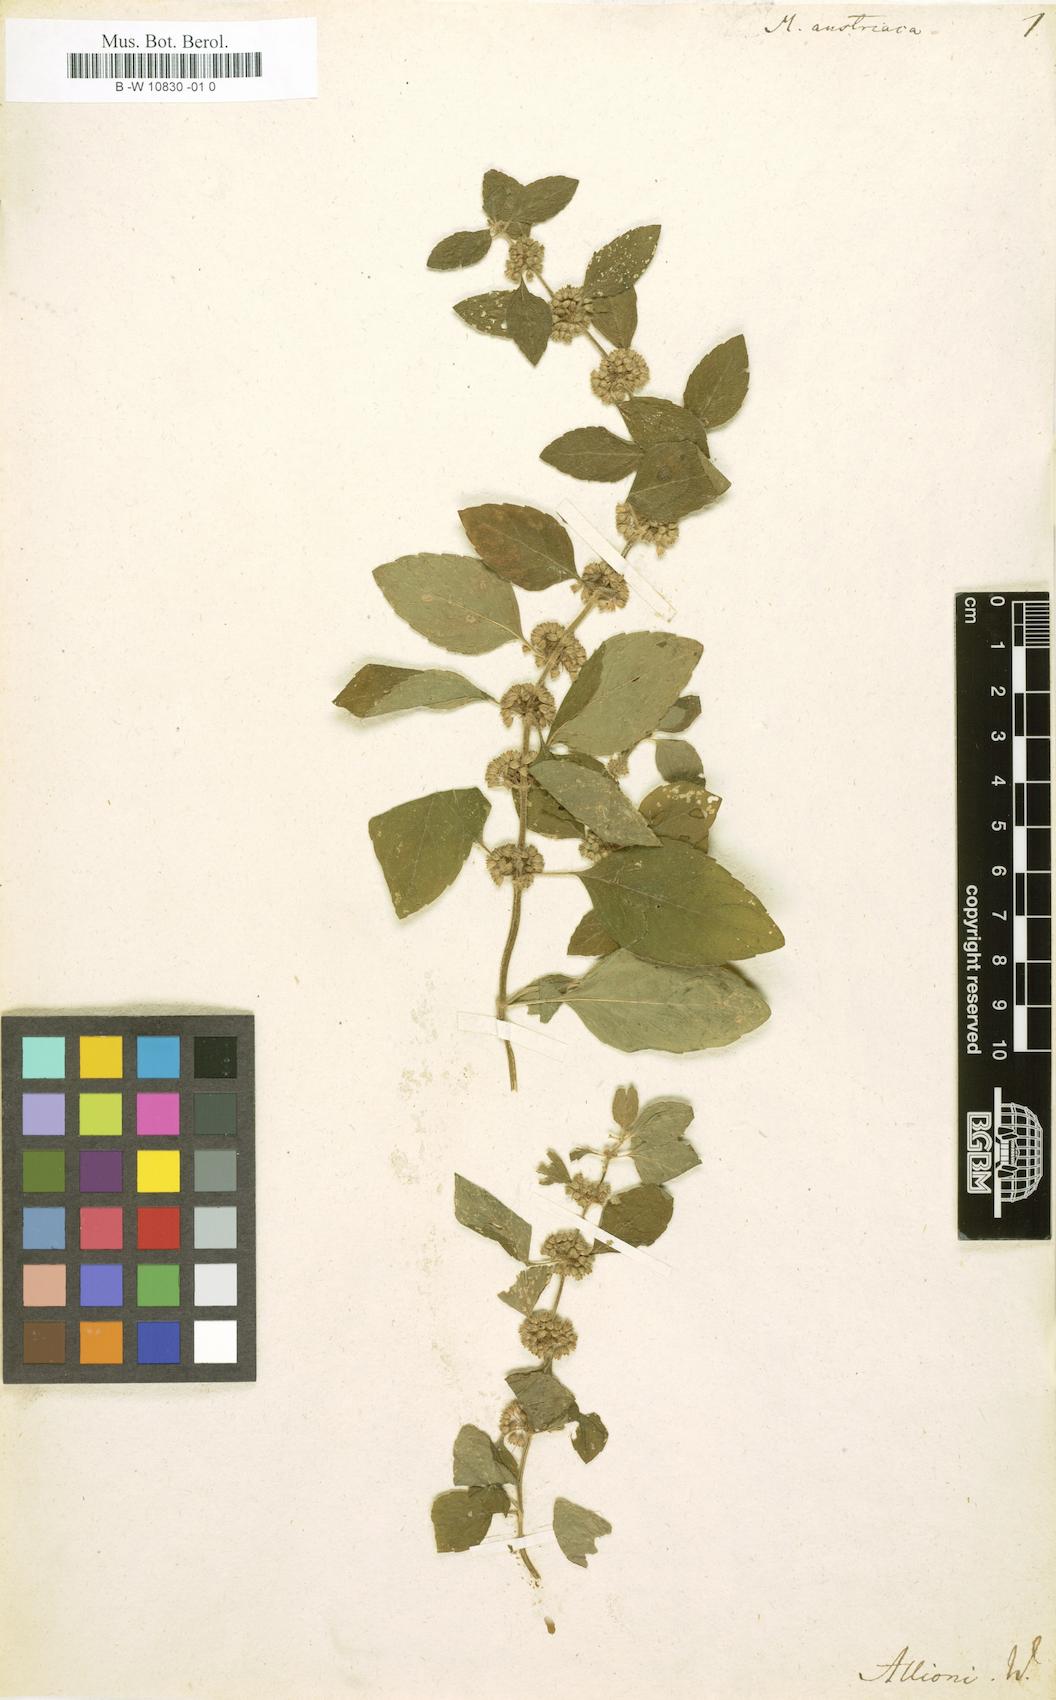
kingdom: Plantae
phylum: Tracheophyta
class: Magnoliopsida
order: Lamiales
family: Lamiaceae
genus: Mentha
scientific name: Mentha arvensis
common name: Corn mint
